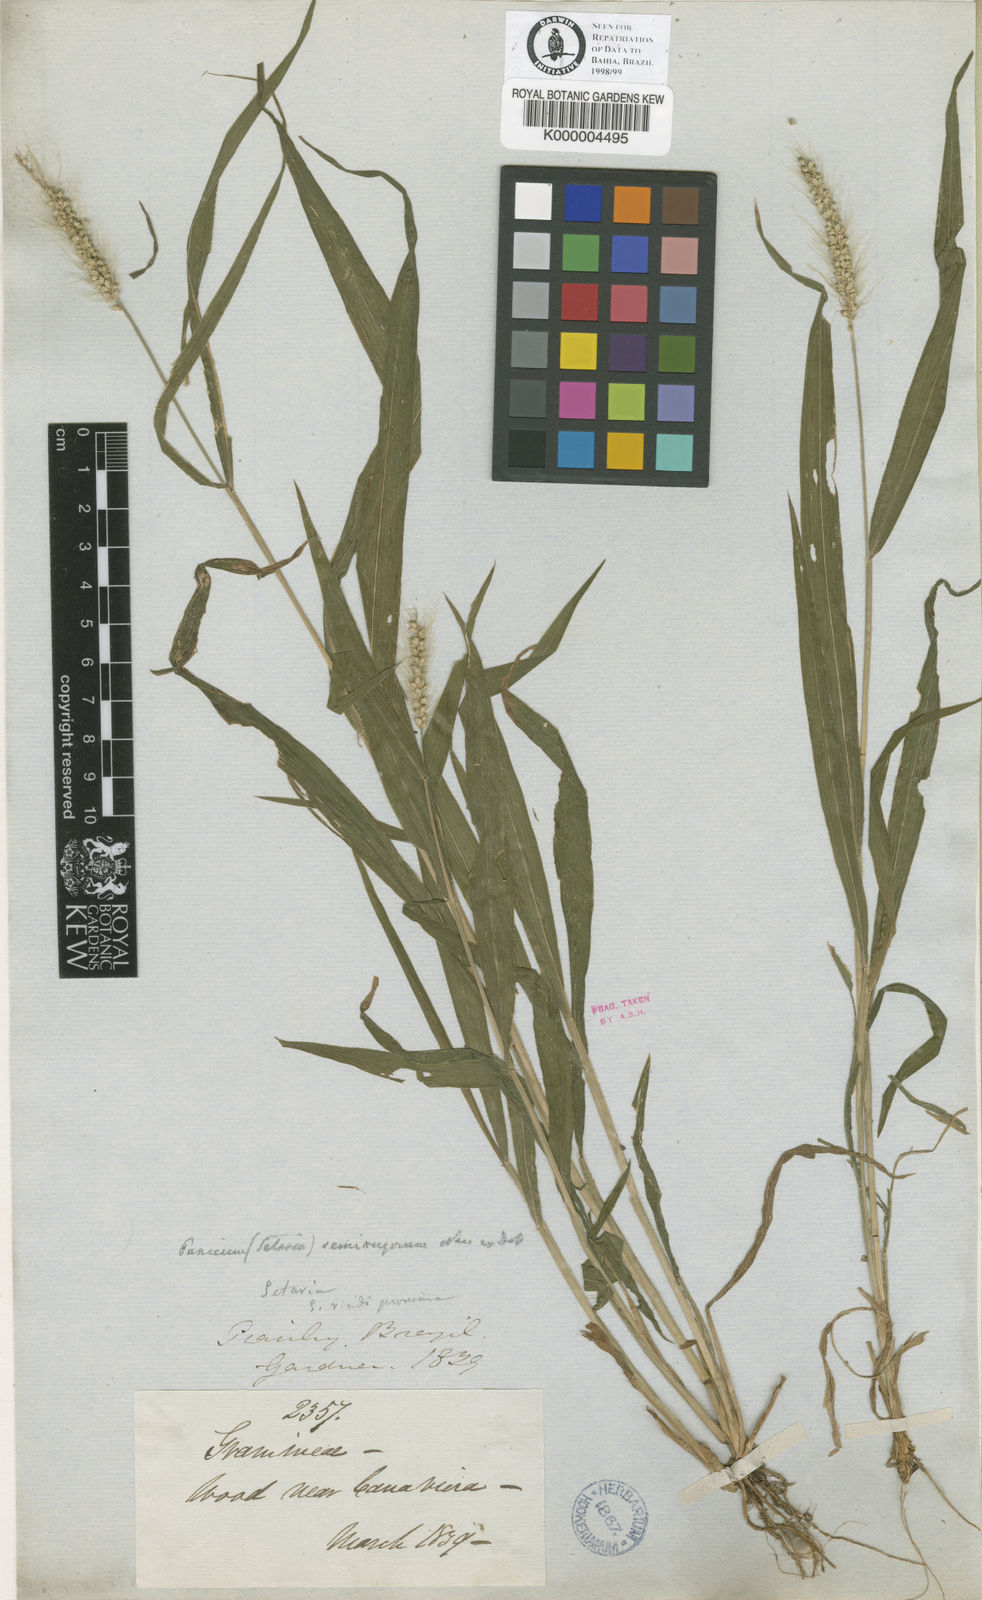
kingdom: Plantae
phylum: Tracheophyta
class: Liliopsida
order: Poales
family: Poaceae
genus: Setaria
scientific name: Setaria tenax
